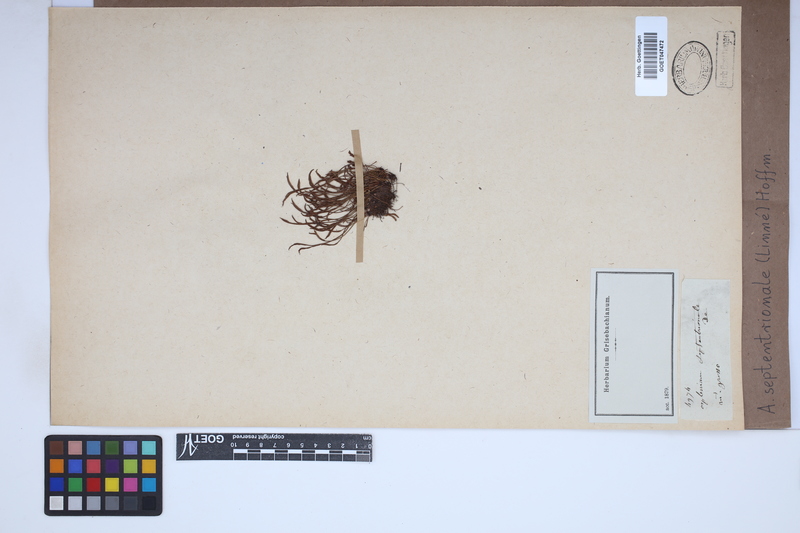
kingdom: Plantae
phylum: Tracheophyta
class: Polypodiopsida
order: Polypodiales
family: Aspleniaceae
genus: Asplenium
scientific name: Asplenium septentrionale
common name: Forked spleenwort
